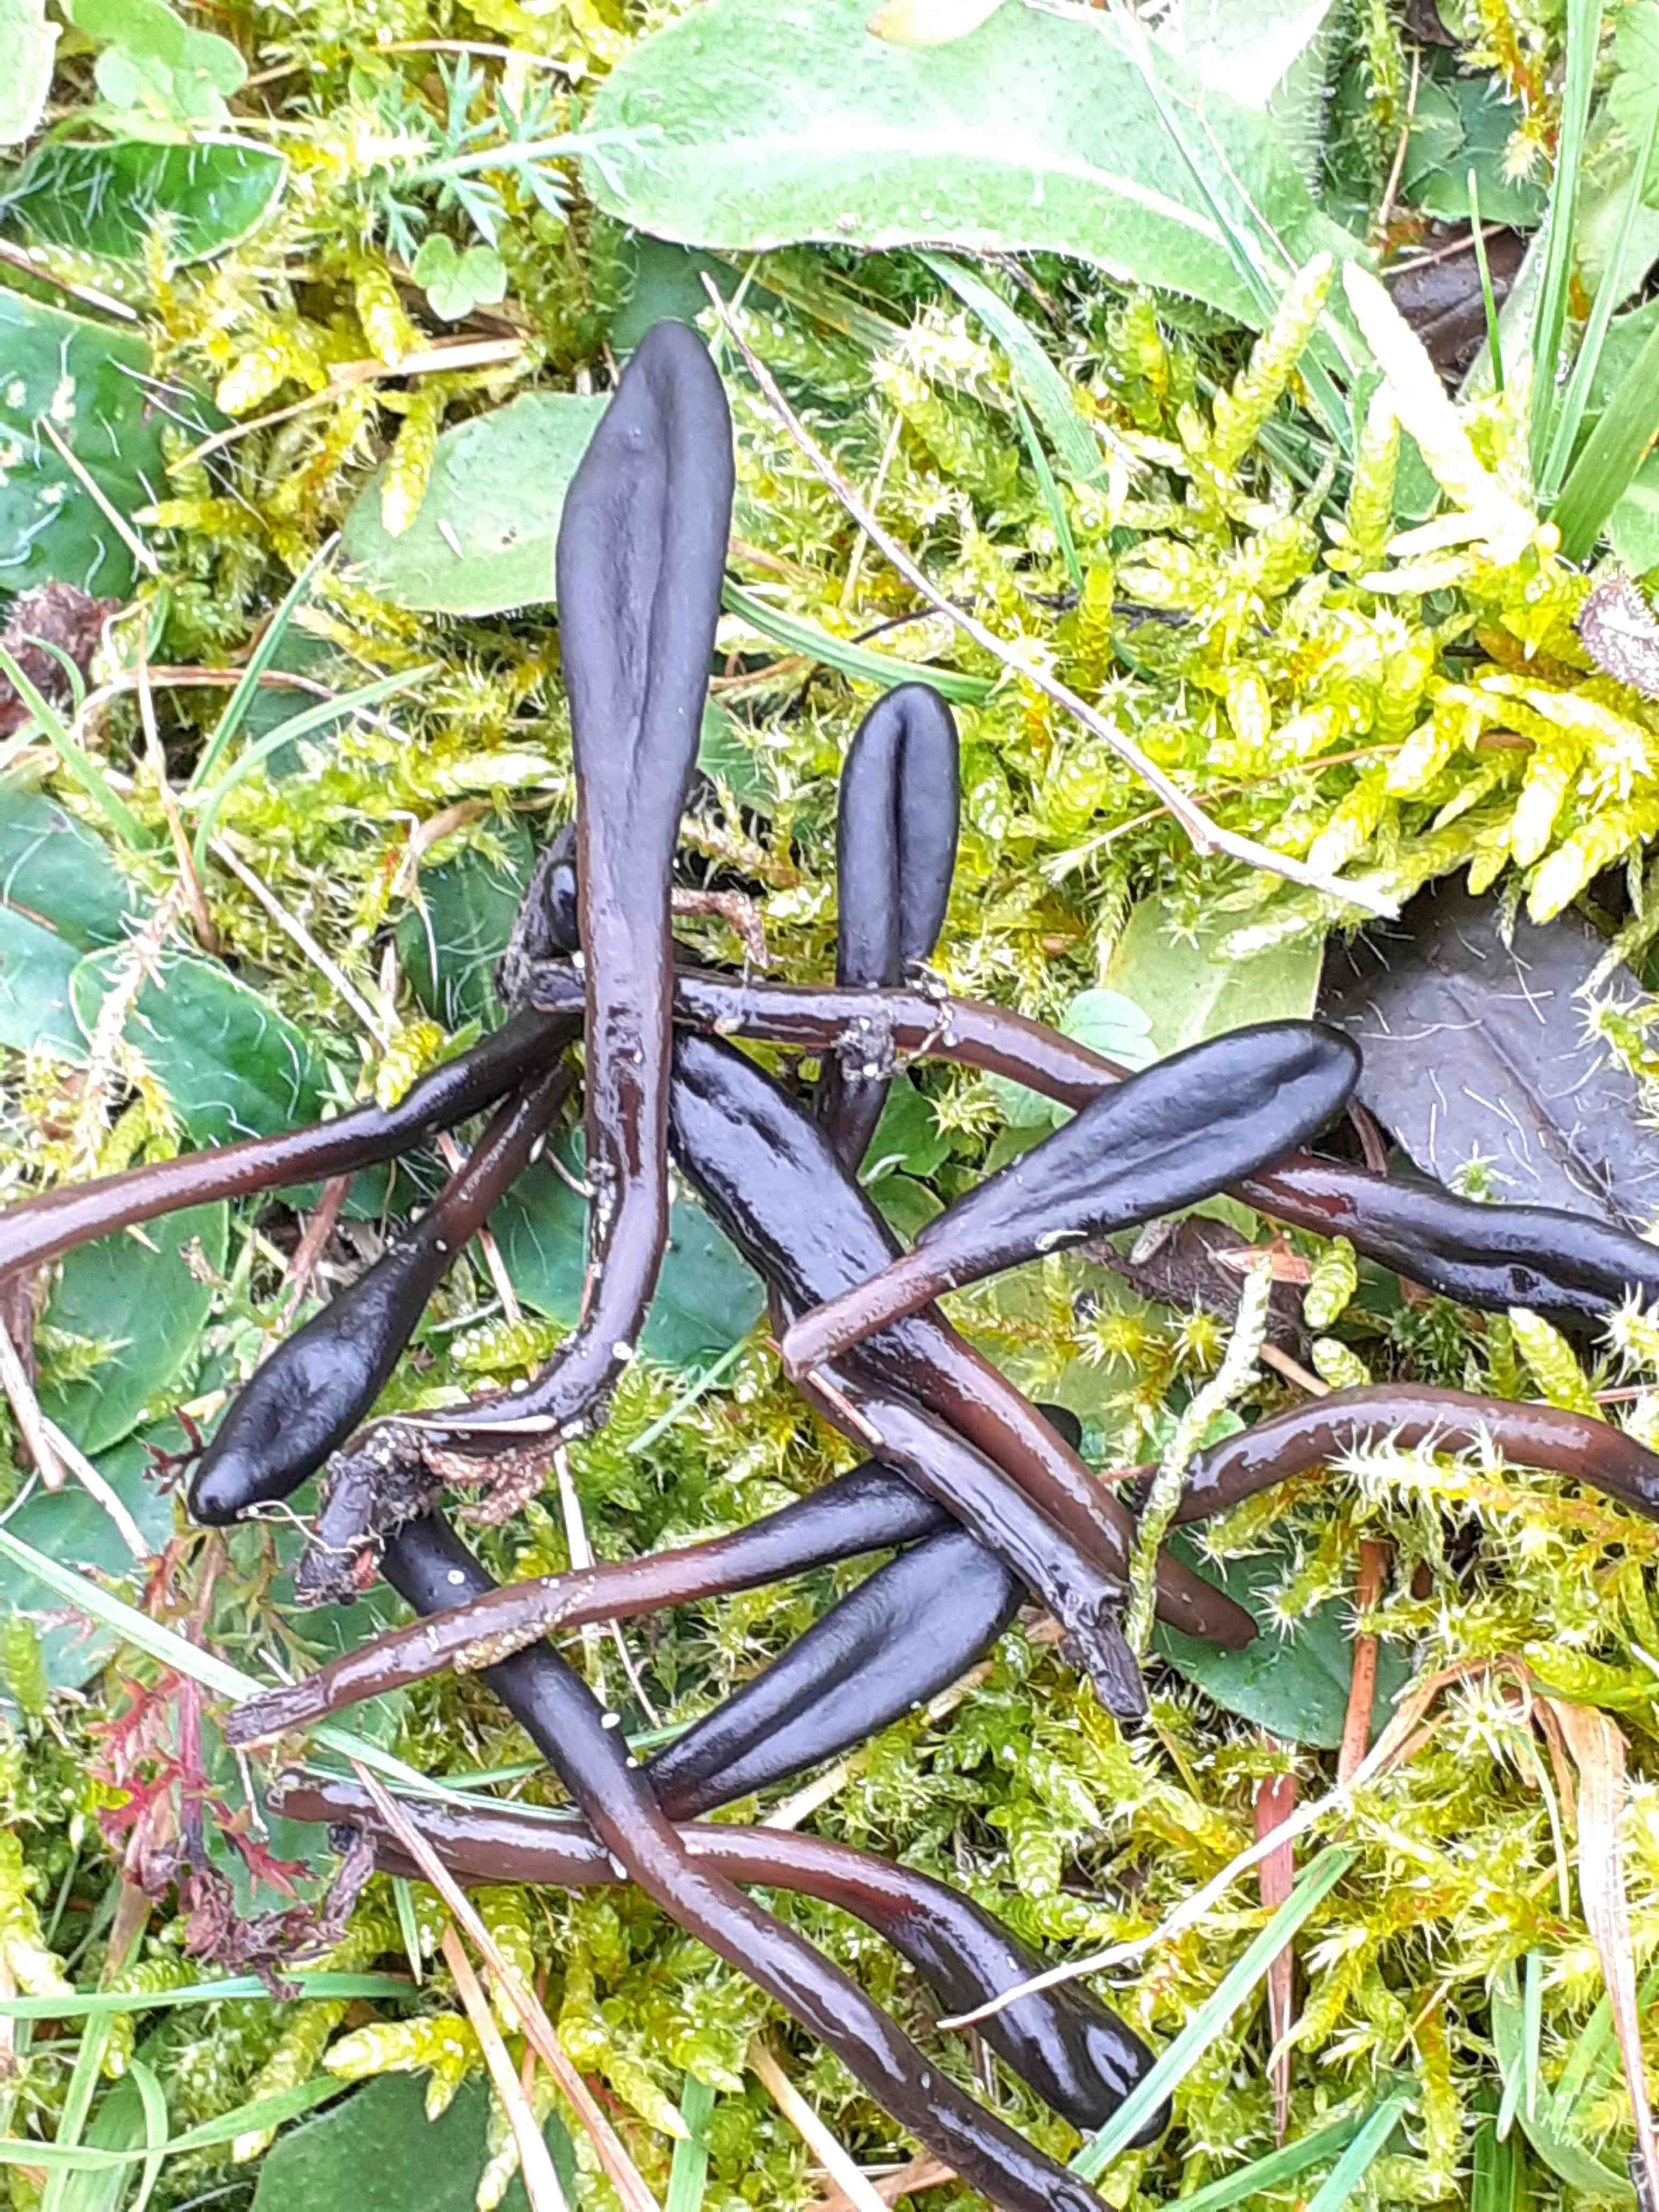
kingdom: Fungi
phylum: Ascomycota
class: Geoglossomycetes
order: Geoglossales
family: Geoglossaceae
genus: Glutinoglossum
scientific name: Glutinoglossum glutinosum
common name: slimet jordtunge
